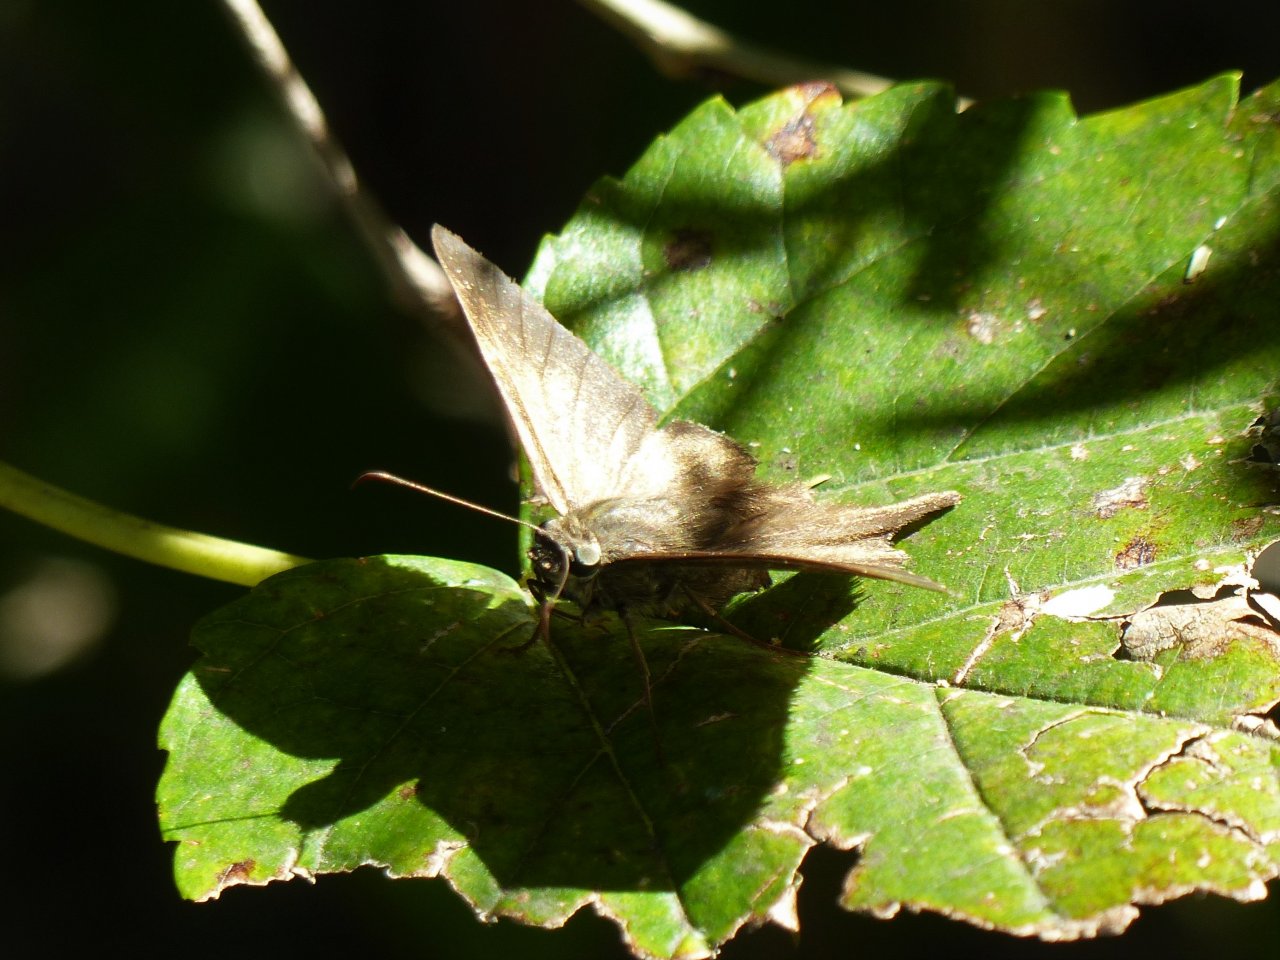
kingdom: Animalia
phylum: Arthropoda
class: Insecta
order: Lepidoptera
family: Hesperiidae
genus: Urbanus
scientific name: Urbanus procne
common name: Brown Longtail
